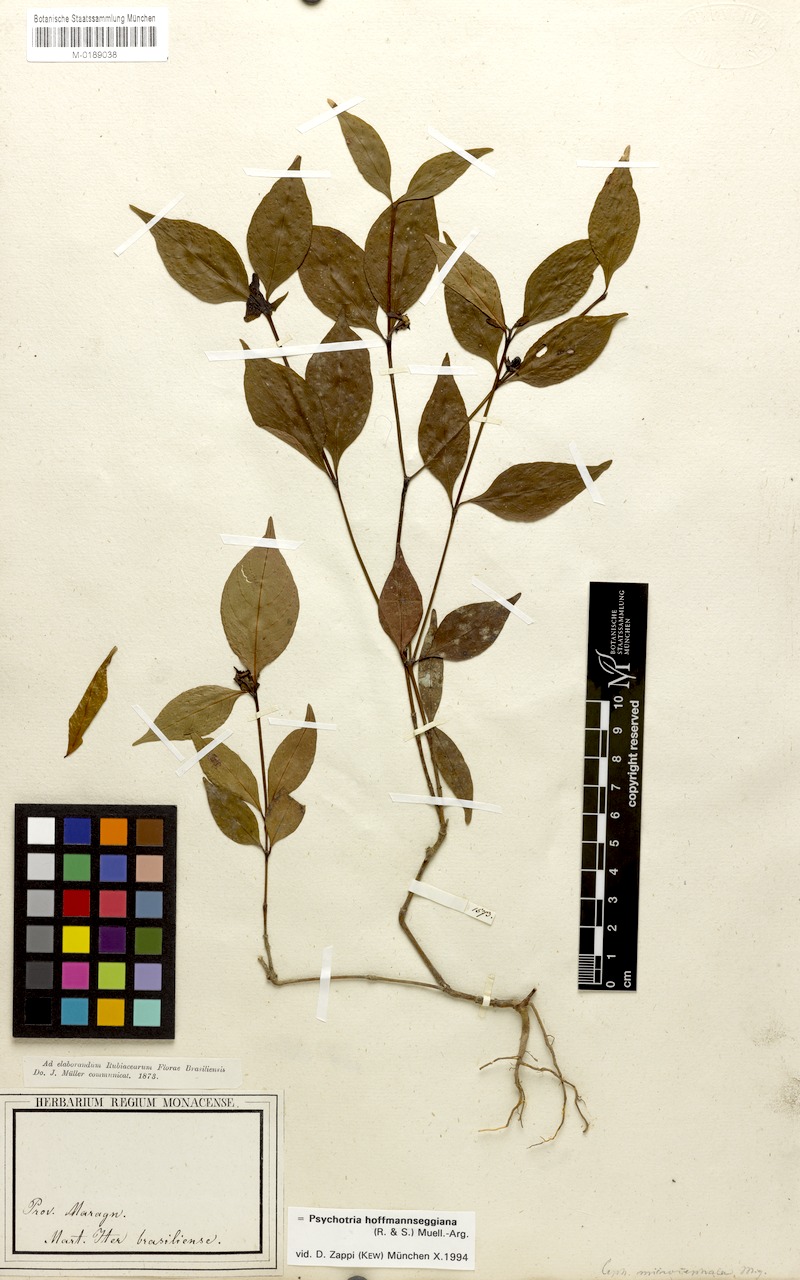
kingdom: Plantae
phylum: Tracheophyta
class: Magnoliopsida
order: Gentianales
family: Rubiaceae
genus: Palicourea
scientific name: Palicourea hoffmannseggiana
